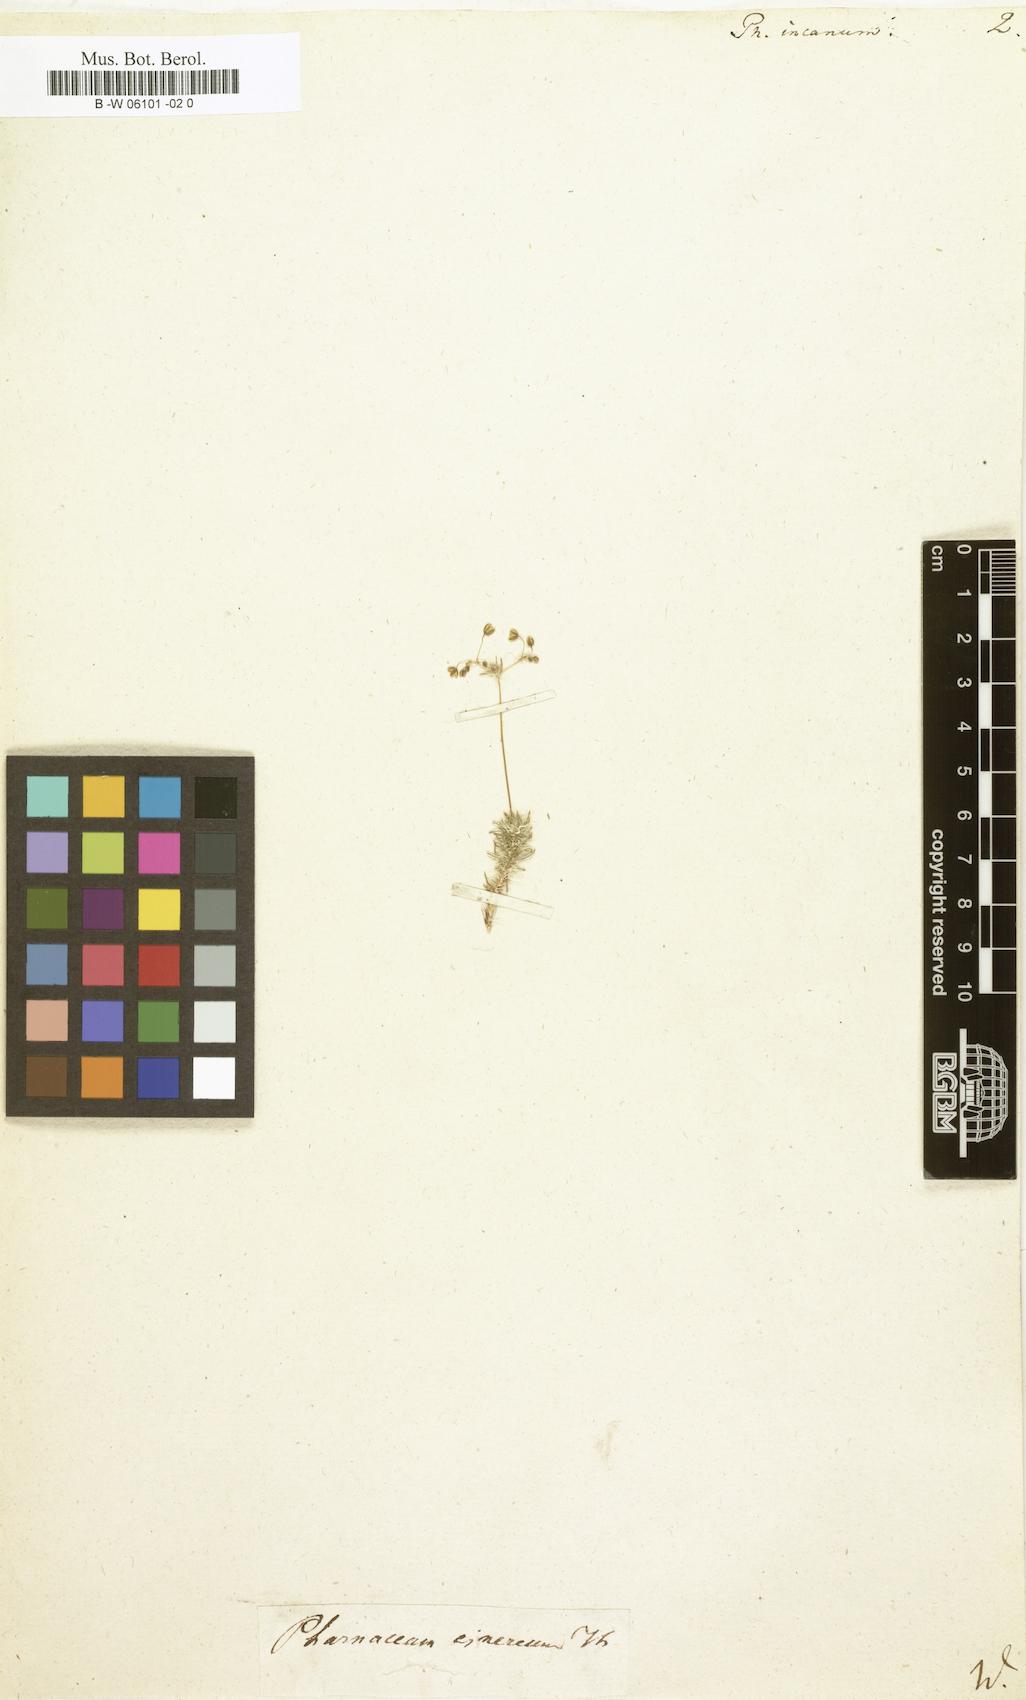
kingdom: Plantae
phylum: Tracheophyta
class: Magnoliopsida
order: Caryophyllales
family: Molluginaceae
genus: Pharnaceum
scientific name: Pharnaceum incanum
